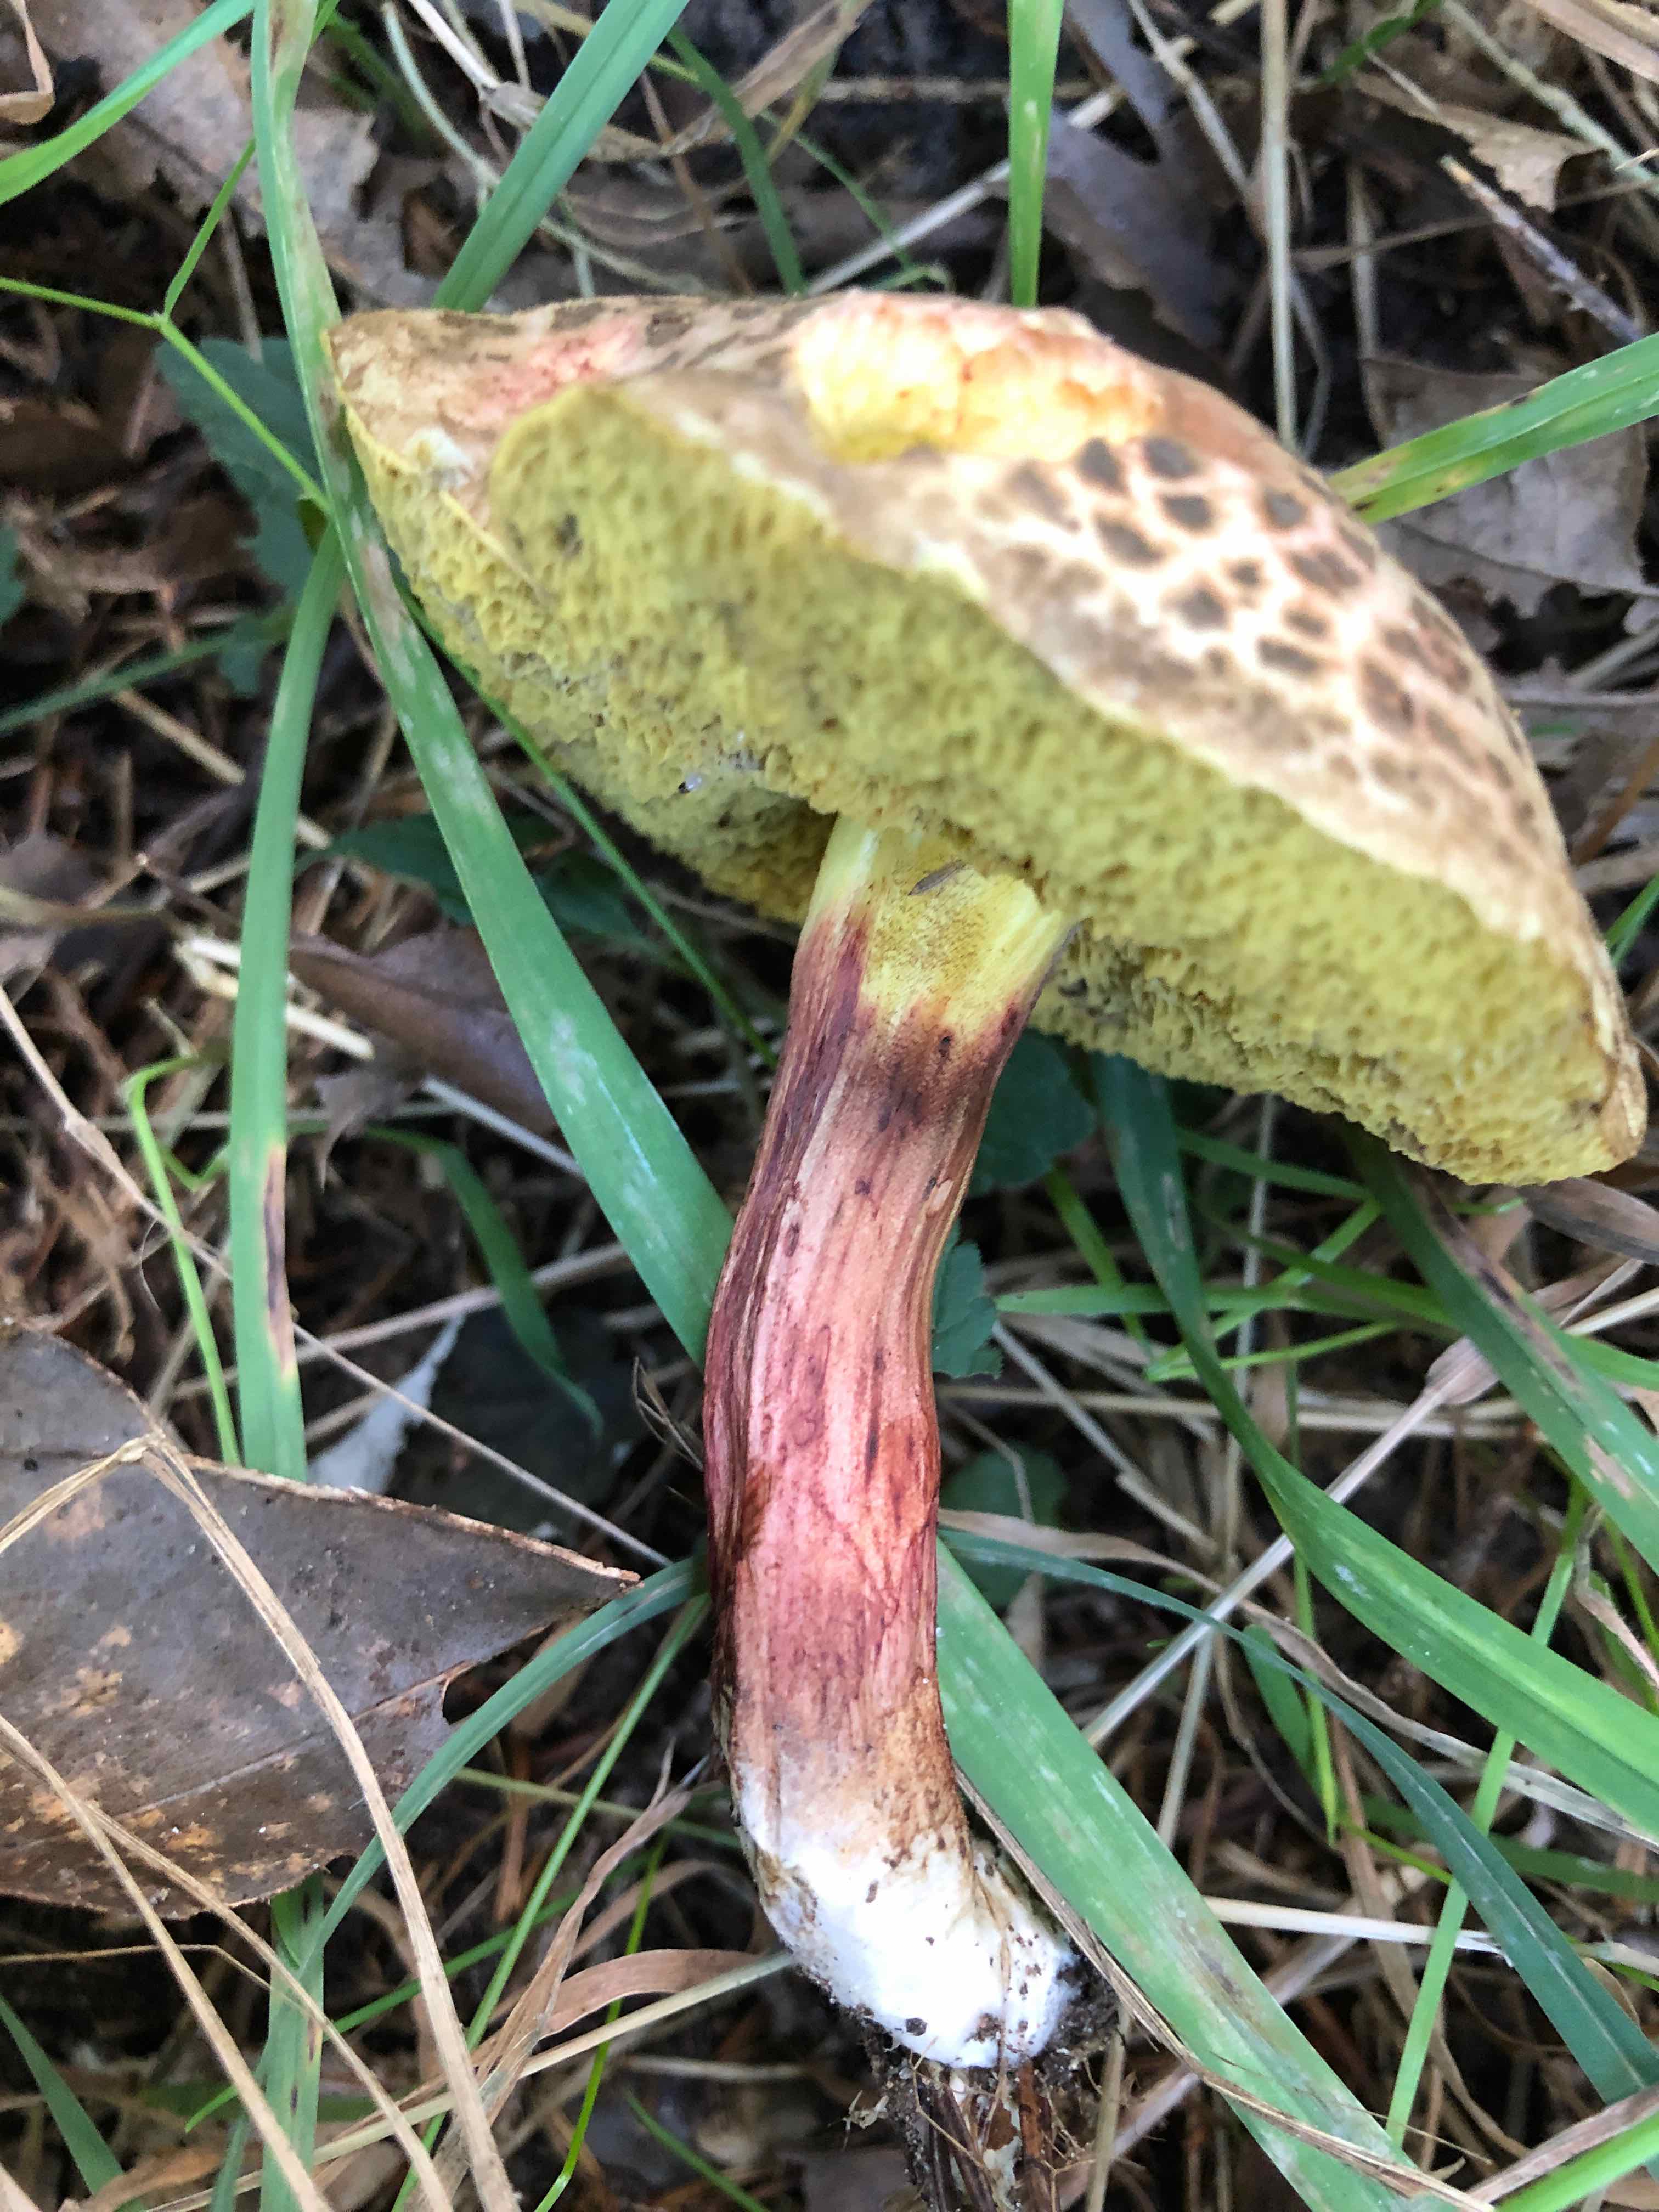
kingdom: Fungi
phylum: Basidiomycota
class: Agaricomycetes
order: Boletales
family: Boletaceae
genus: Xerocomellus
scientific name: Xerocomellus chrysenteron
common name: rødsprukken rørhat
